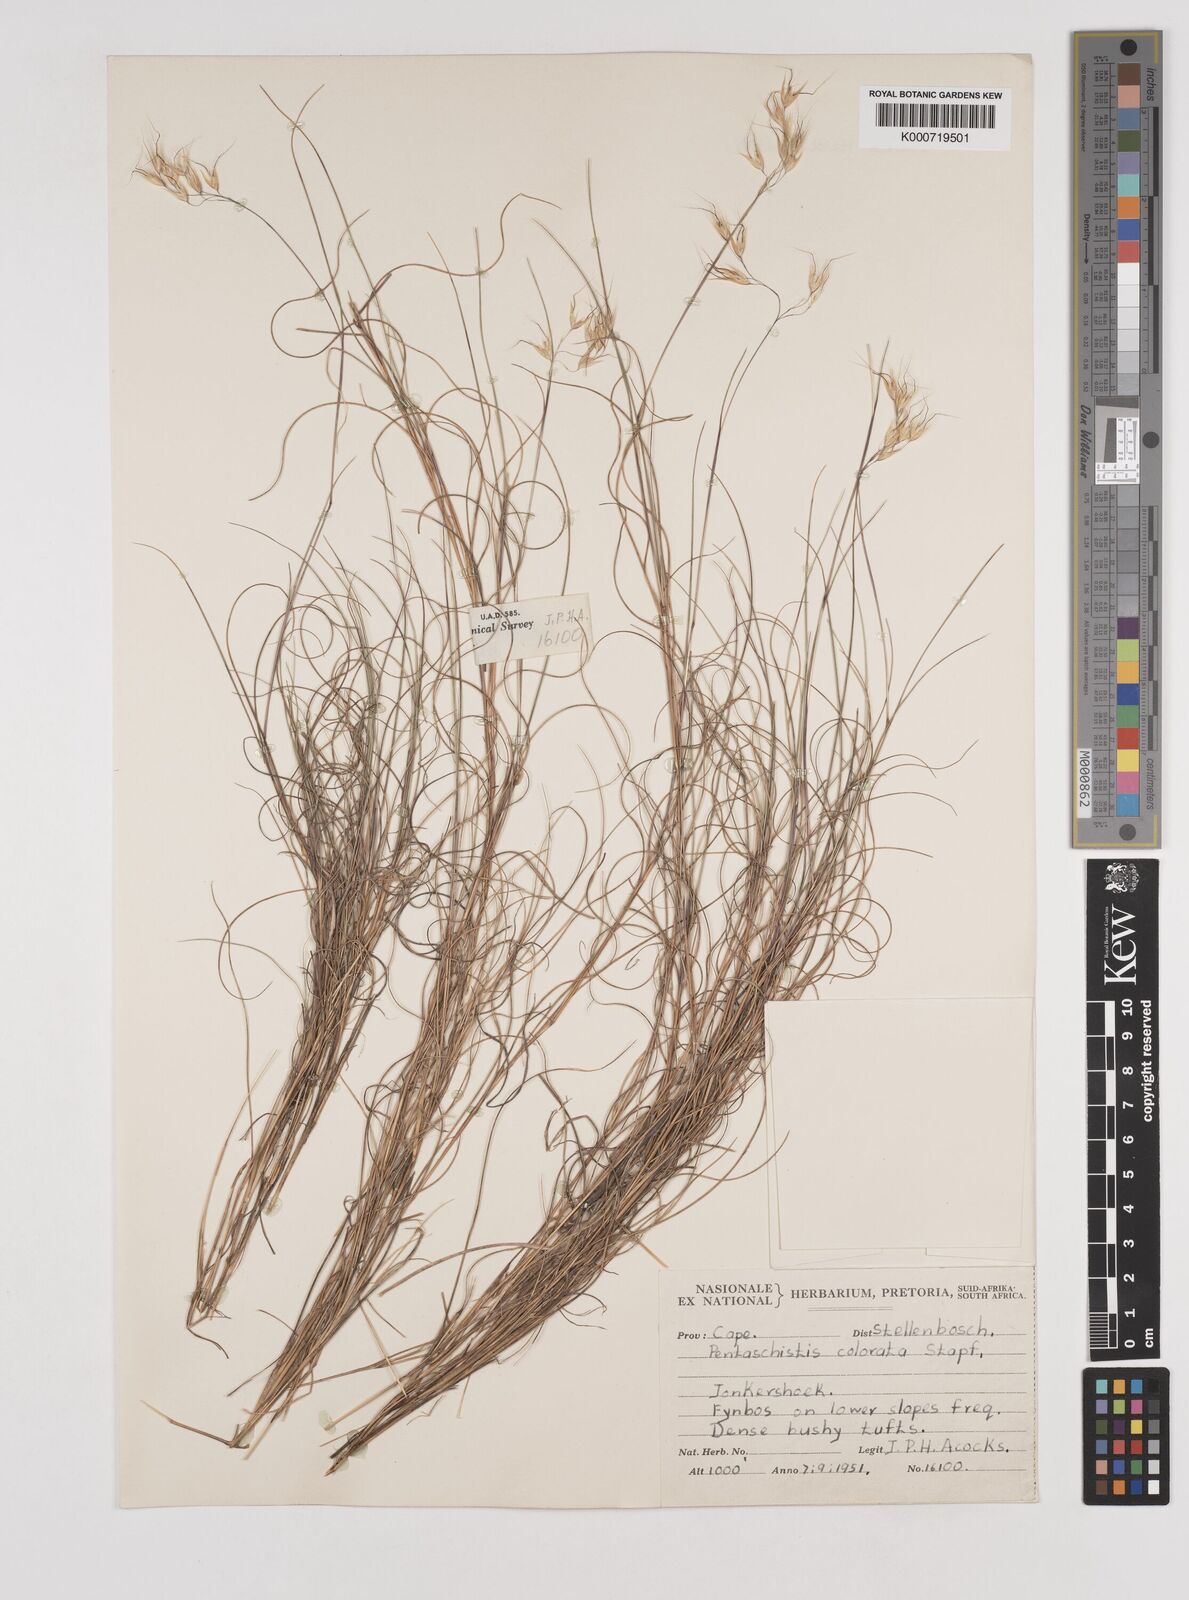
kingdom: Plantae
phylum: Tracheophyta
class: Liliopsida
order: Poales
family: Poaceae
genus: Pentameris
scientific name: Pentameris colorata
